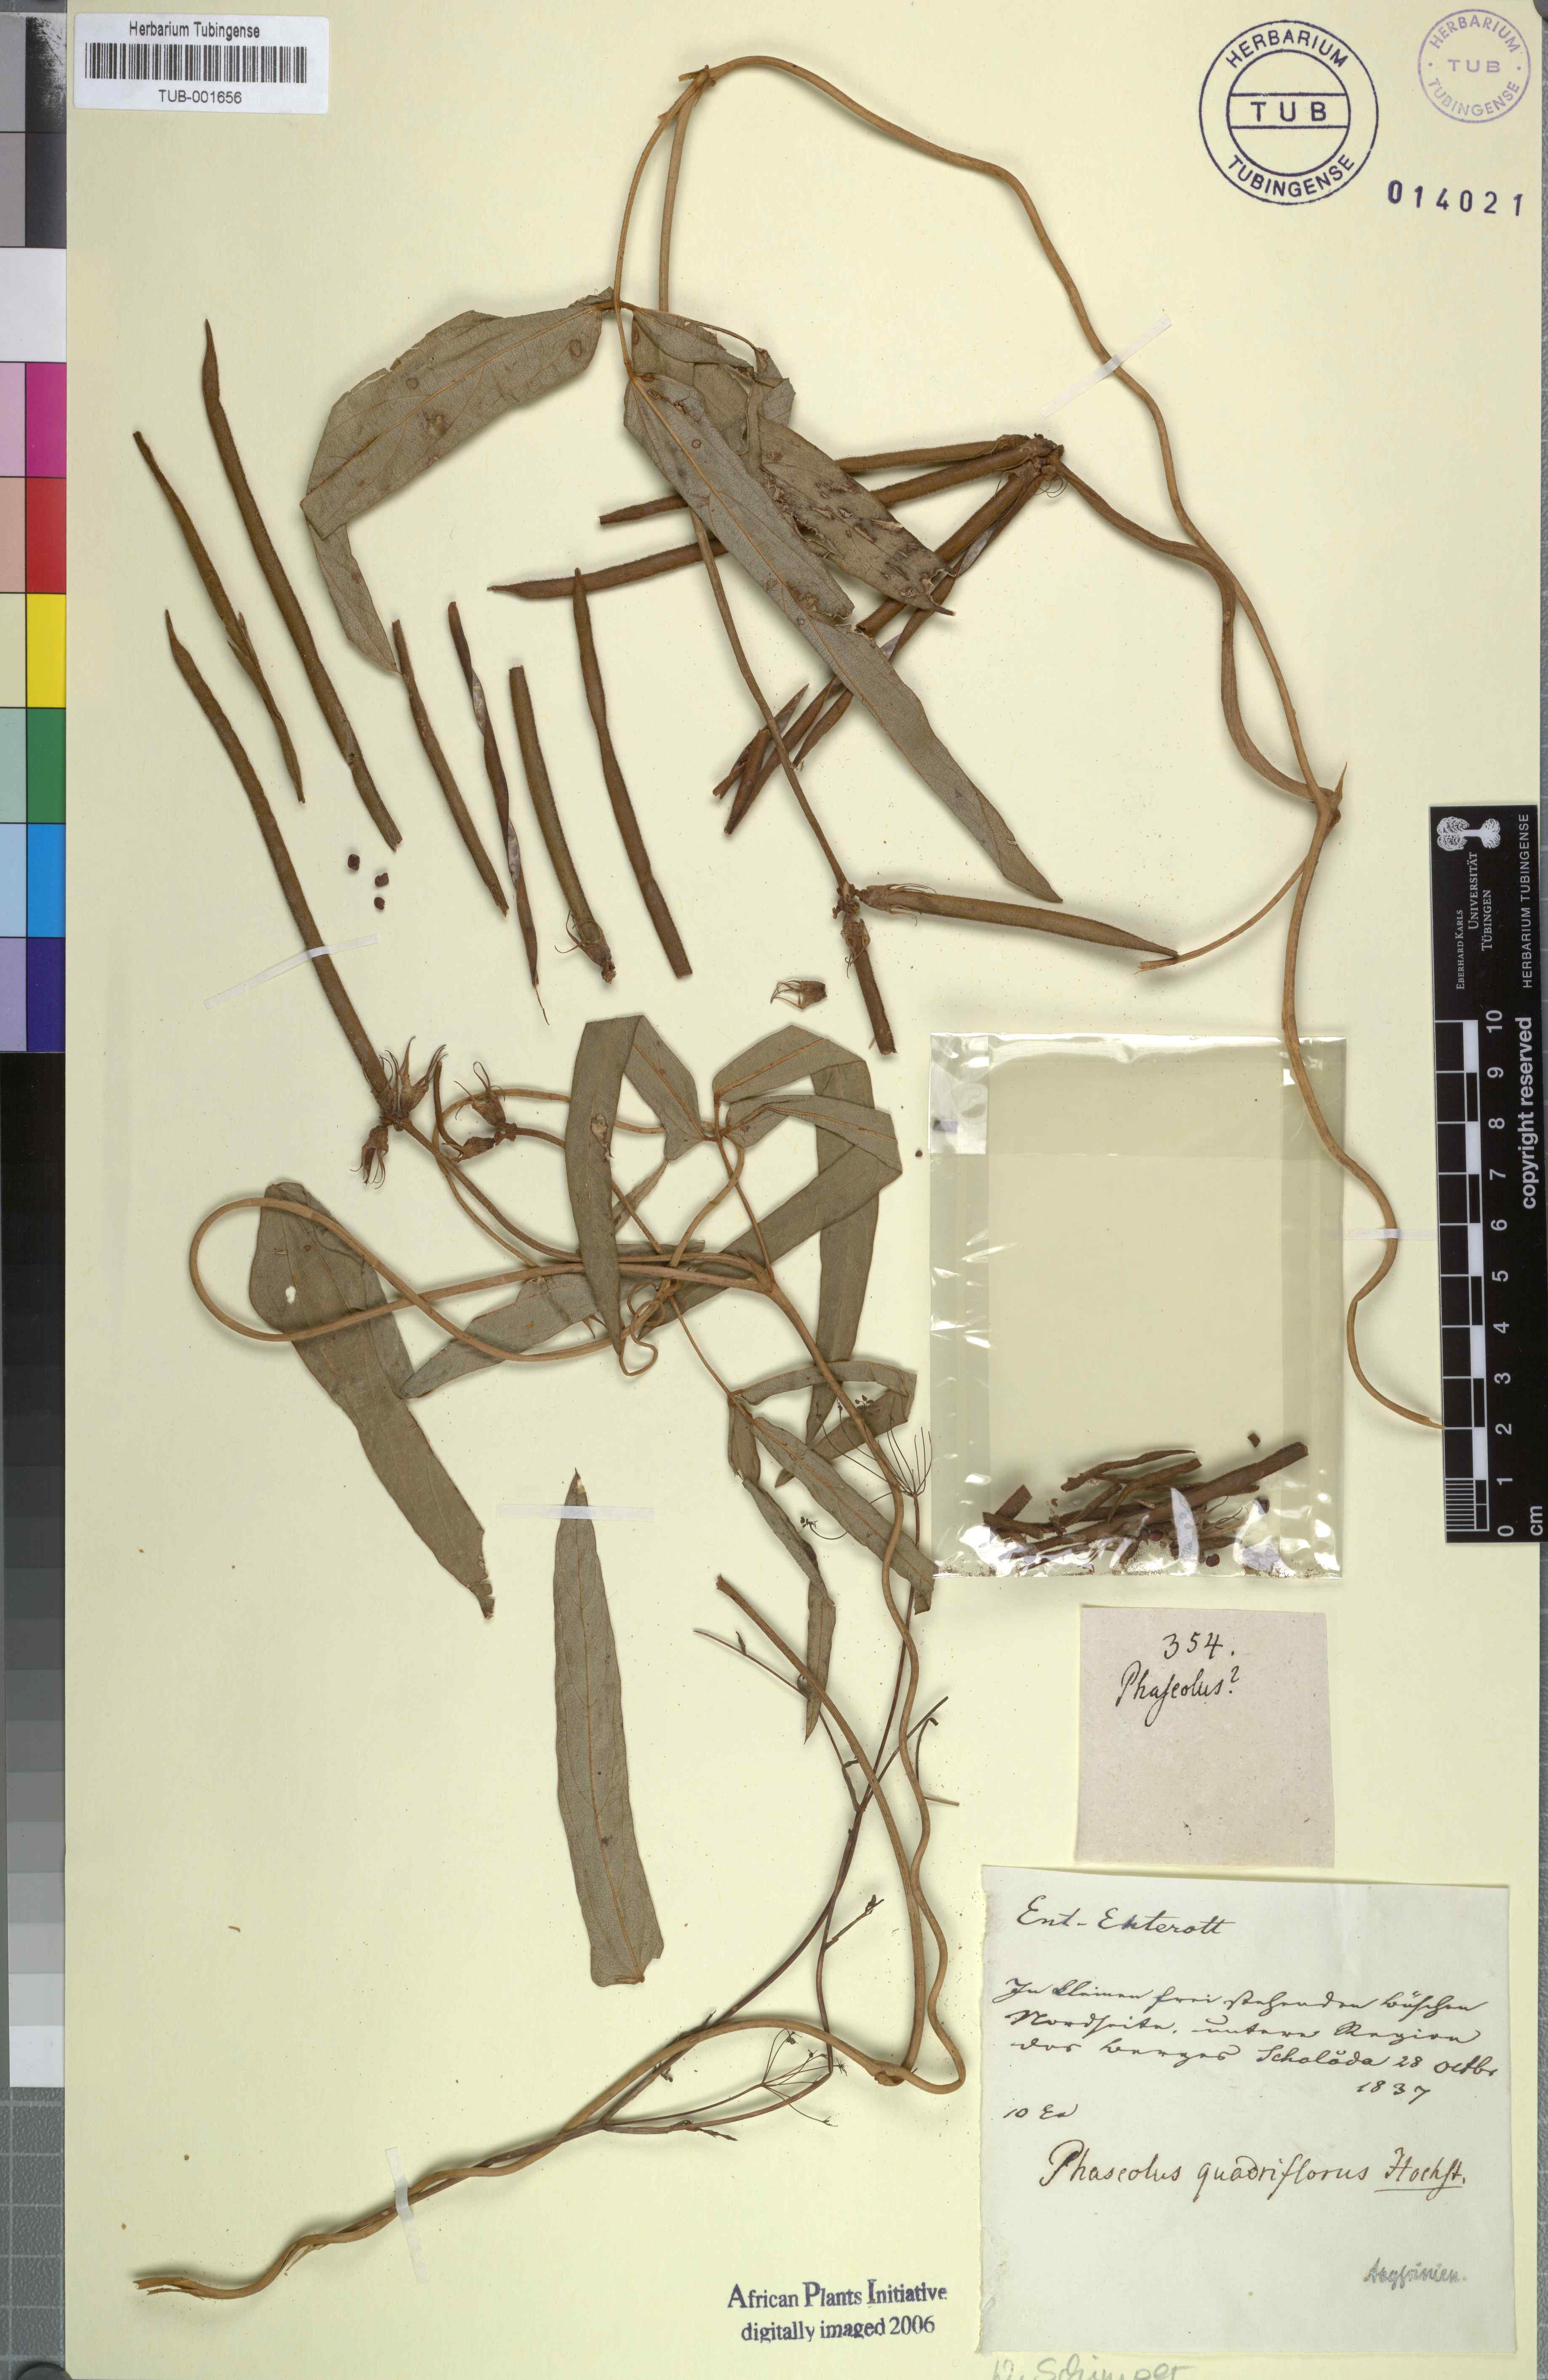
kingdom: Plantae
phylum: Tracheophyta
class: Magnoliopsida
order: Fabales
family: Fabaceae
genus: Vigna
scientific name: Vigna vexillata
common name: Zombi pea
